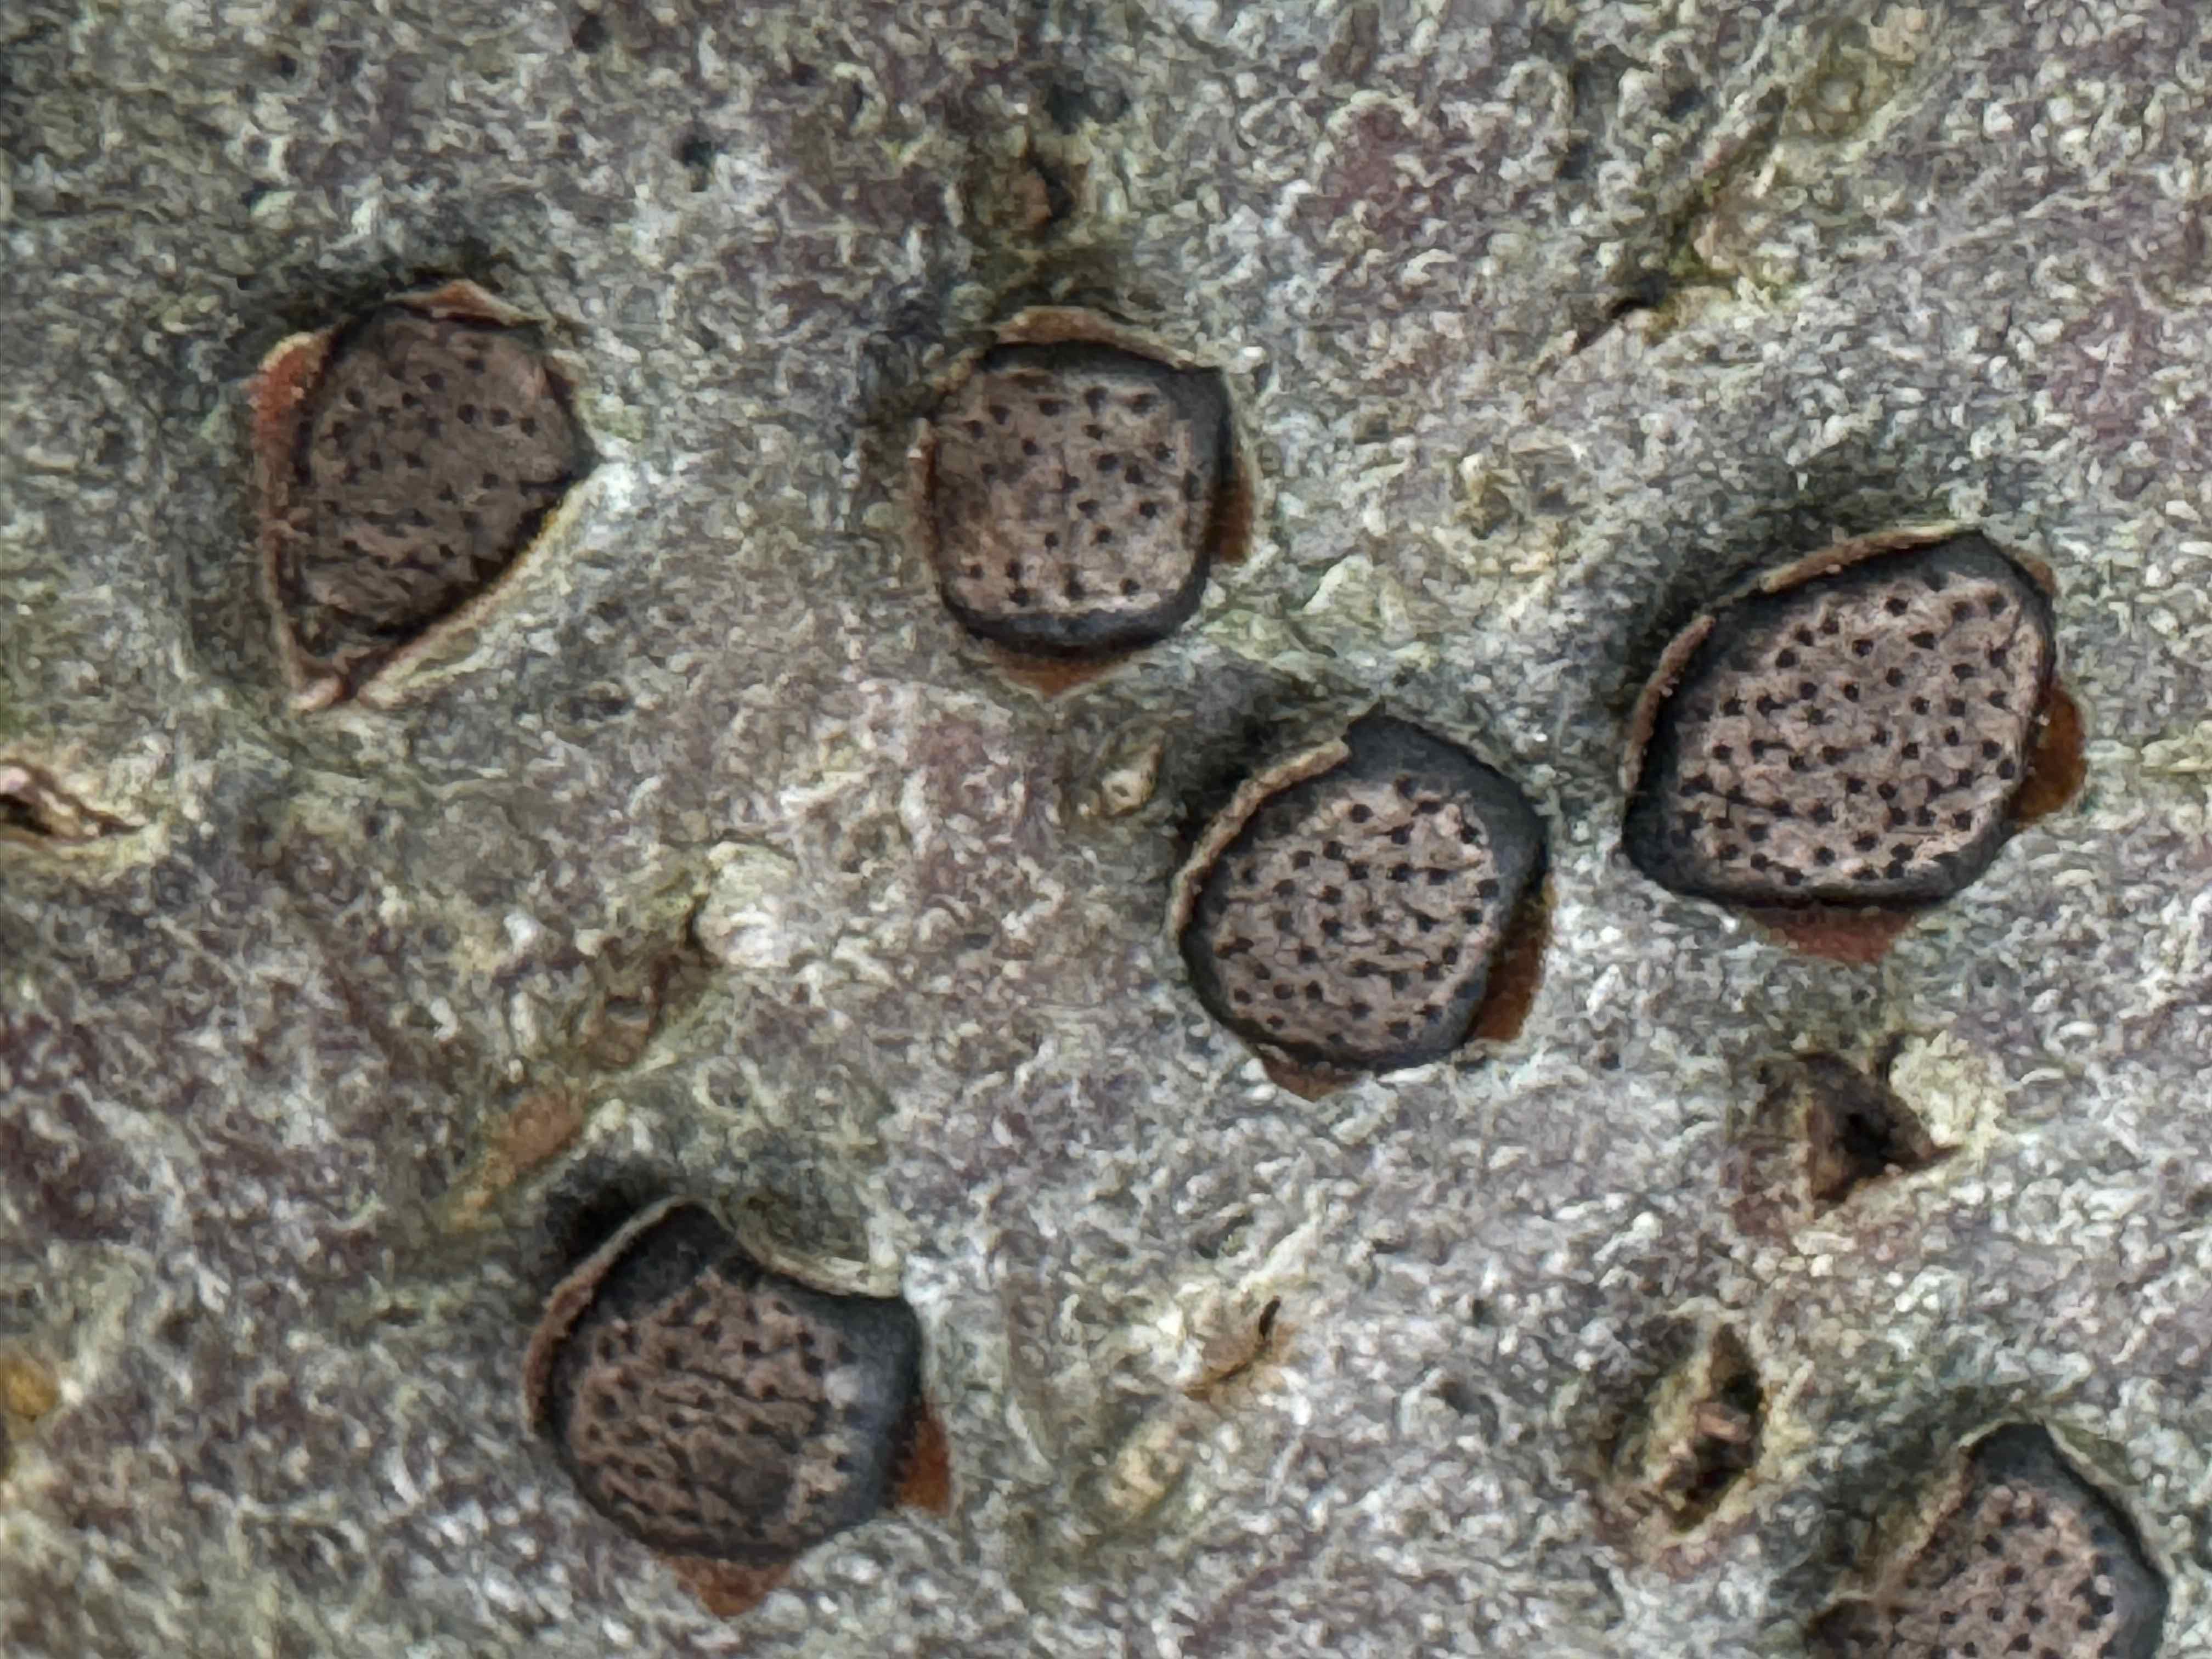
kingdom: Fungi
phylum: Ascomycota
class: Sordariomycetes
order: Xylariales
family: Diatrypaceae
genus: Diatrype
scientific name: Diatrype disciformis
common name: kant-kulskorpe
